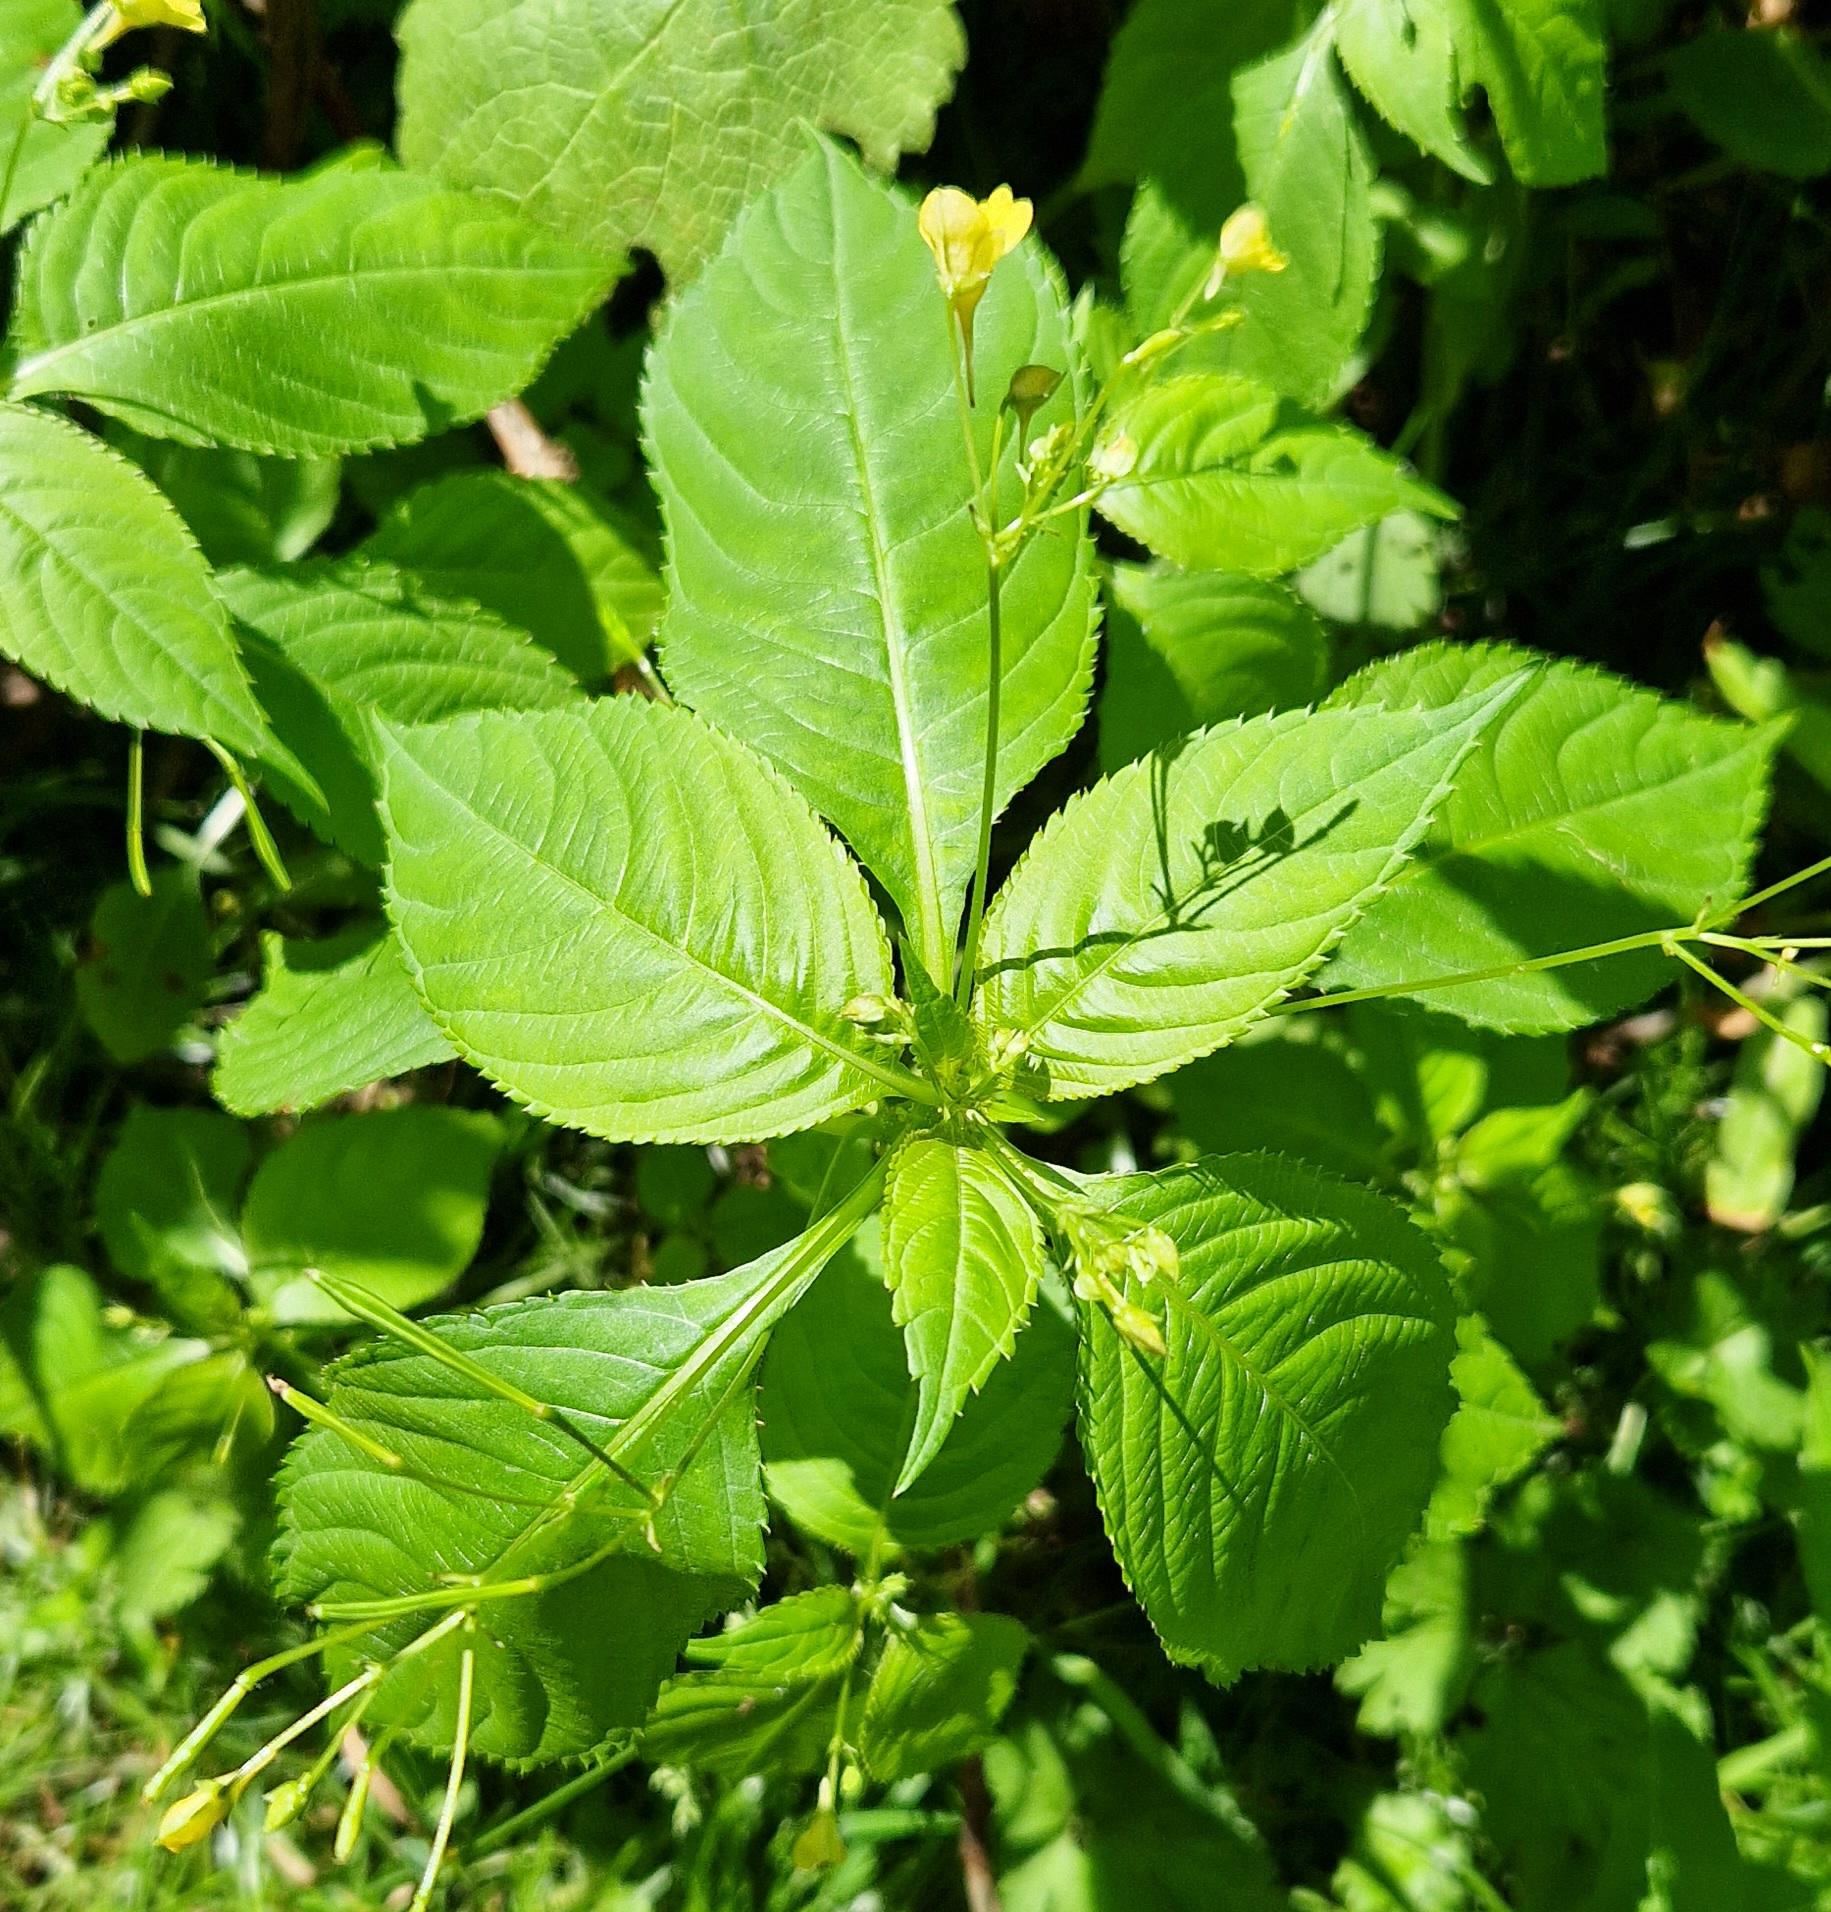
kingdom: Plantae
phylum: Tracheophyta
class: Magnoliopsida
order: Ericales
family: Balsaminaceae
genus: Impatiens
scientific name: Impatiens parviflora
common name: Småblomstret balsamin
